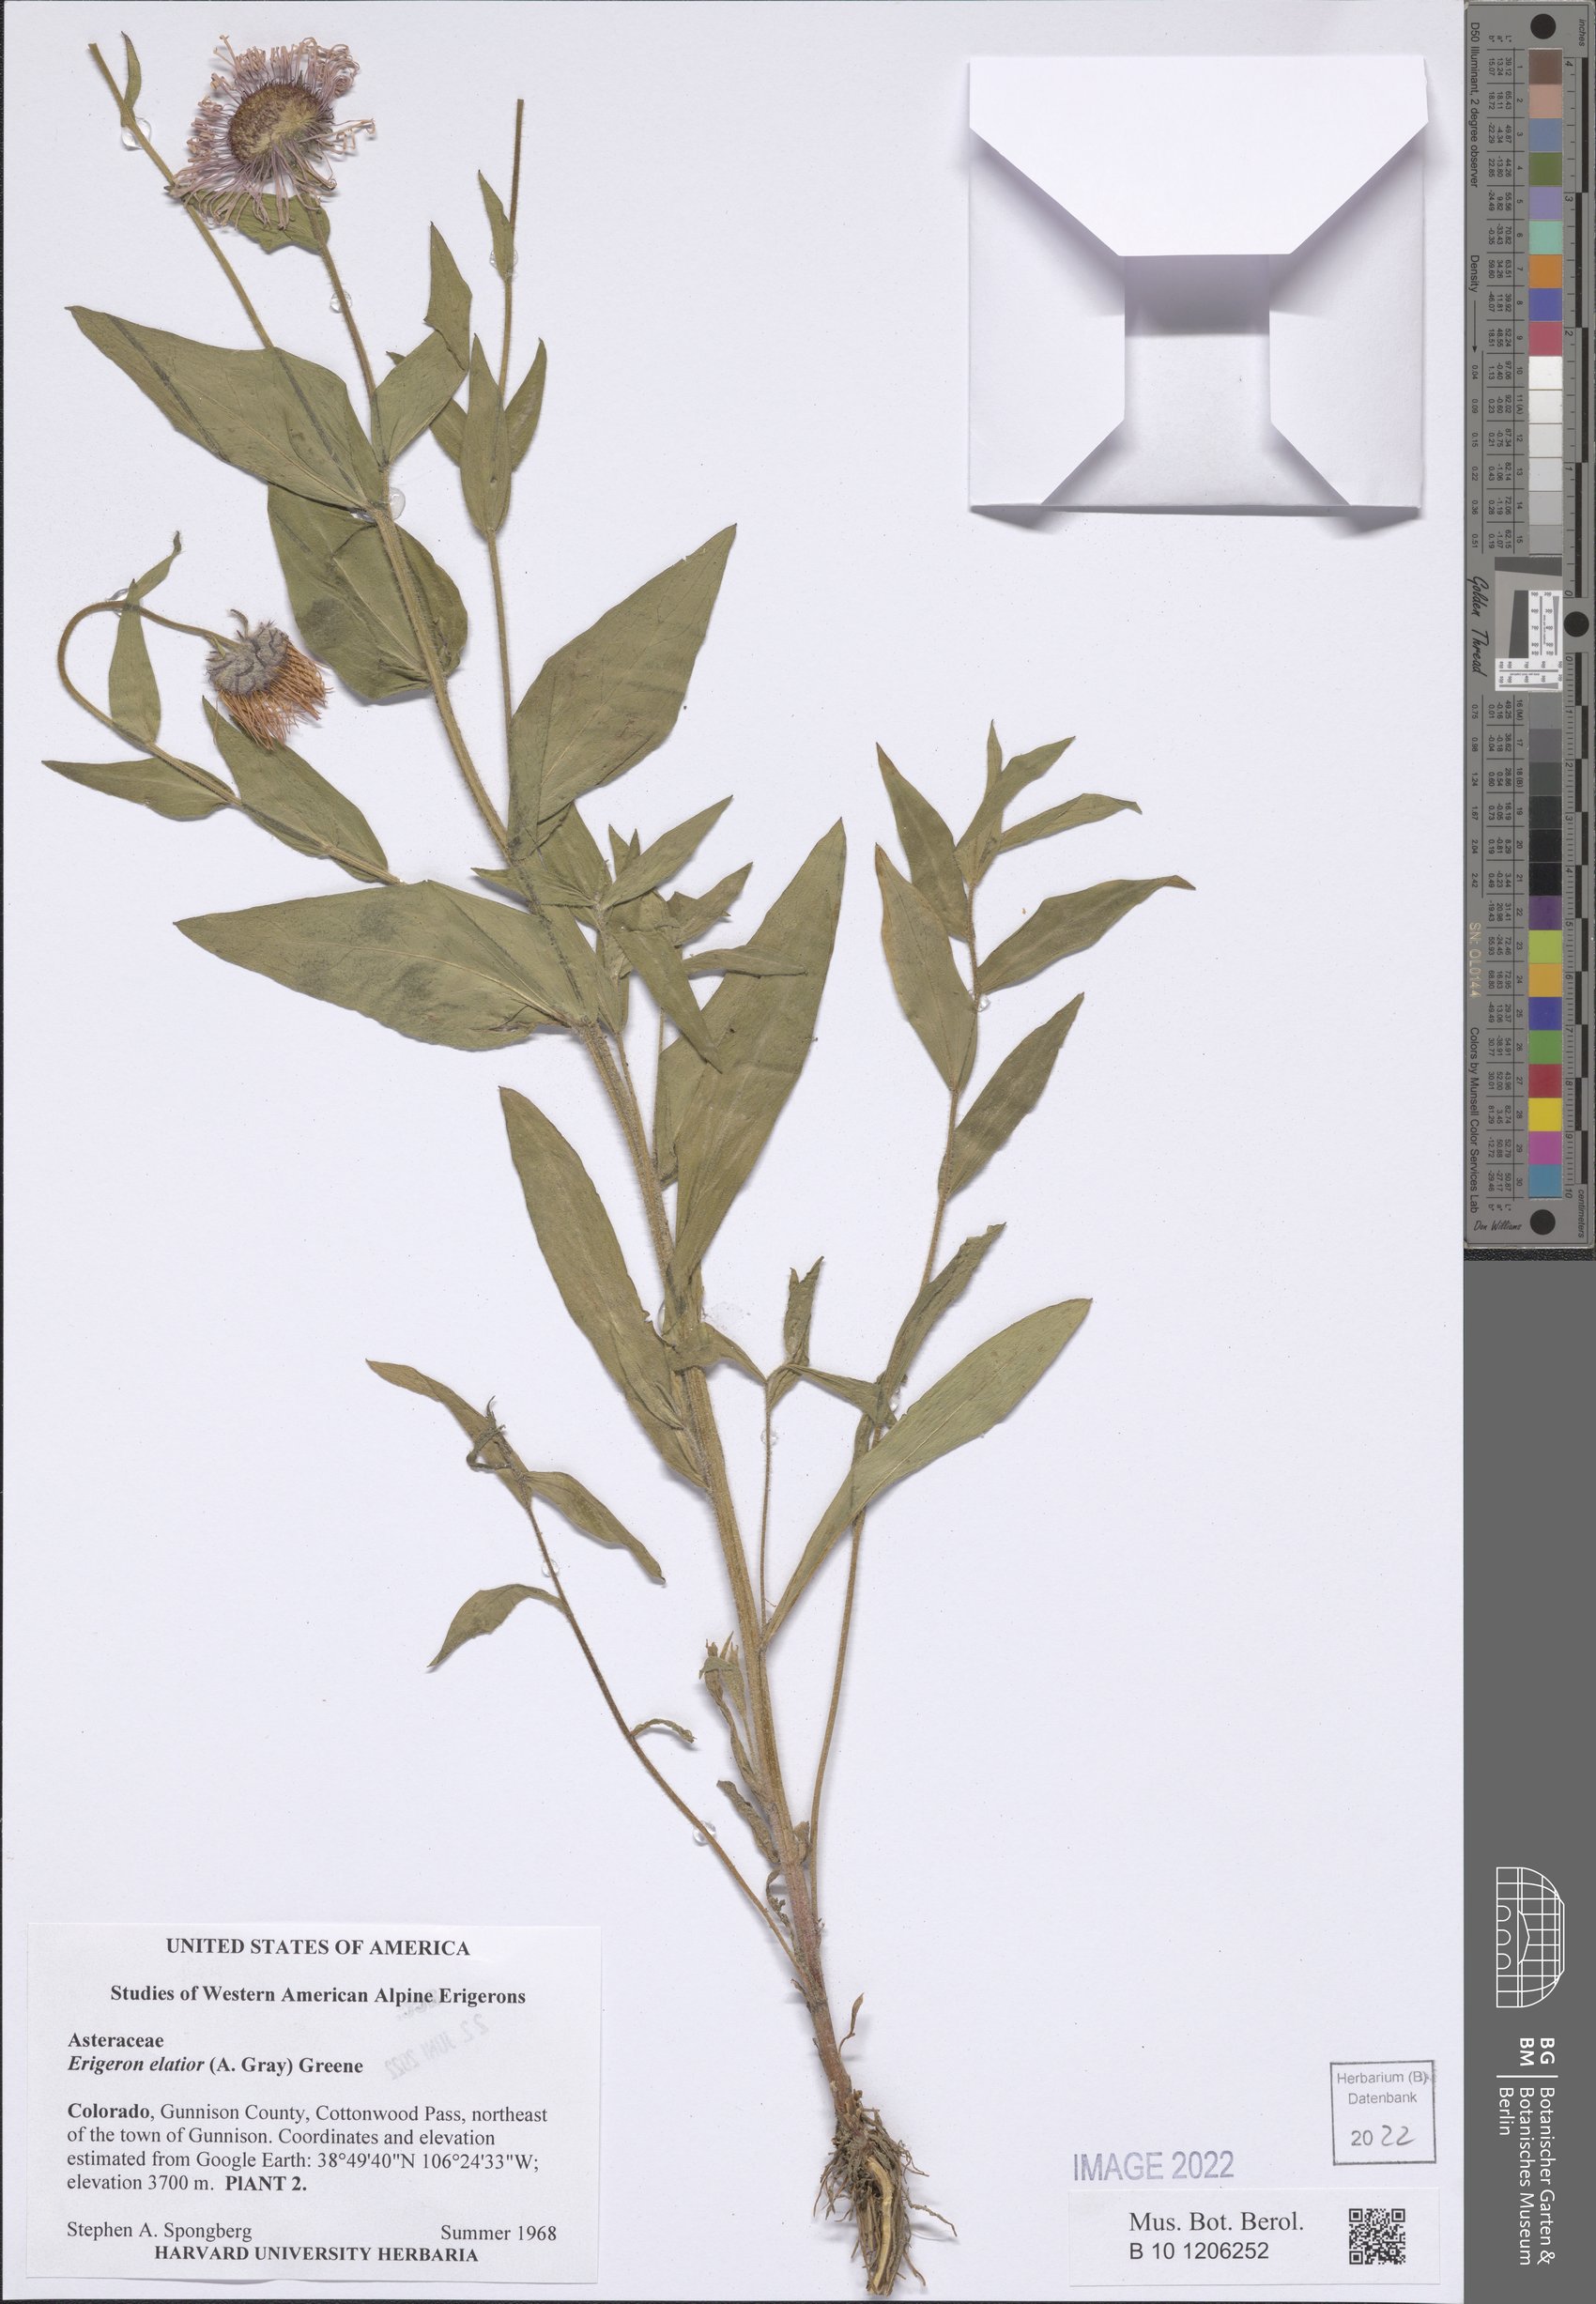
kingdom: Plantae
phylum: Tracheophyta
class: Magnoliopsida
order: Asterales
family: Asteraceae
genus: Erigeron
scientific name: Erigeron elatior
